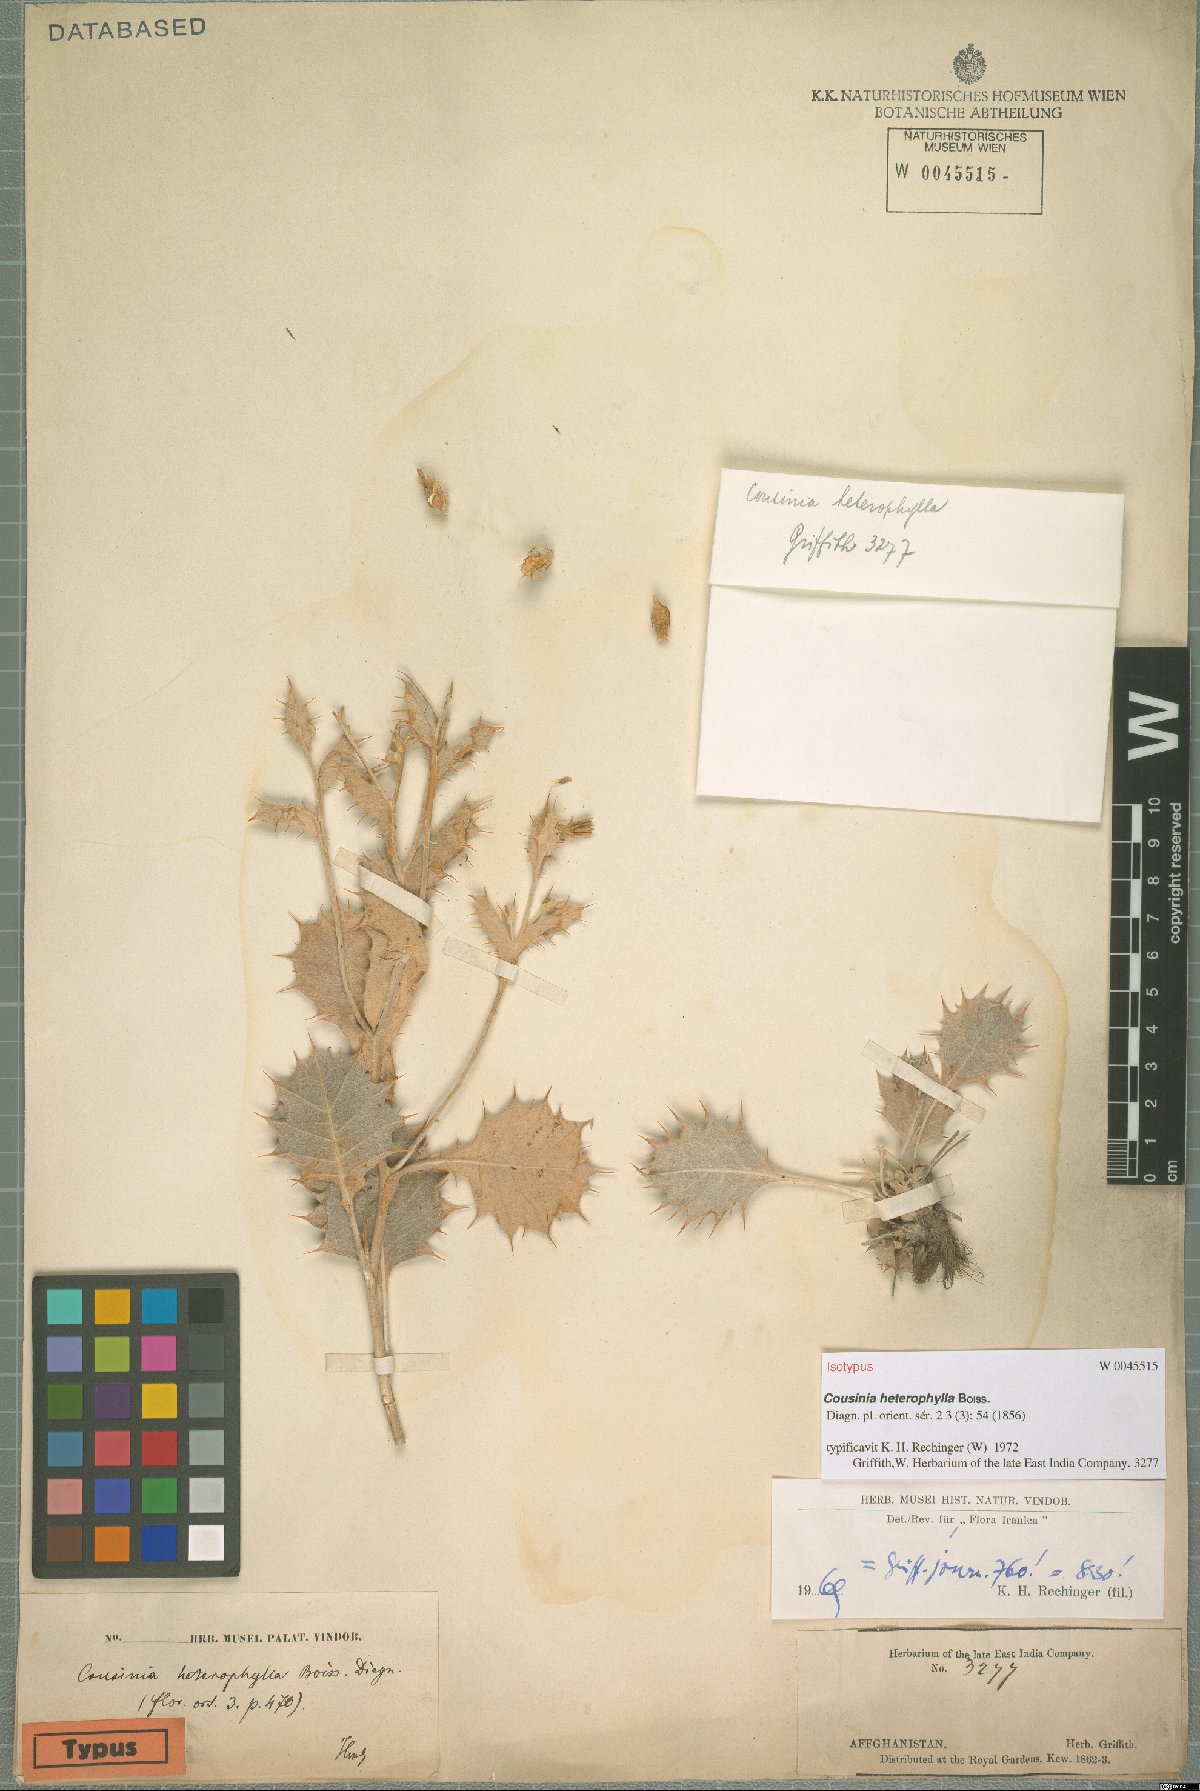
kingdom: Plantae
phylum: Tracheophyta
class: Magnoliopsida
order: Asterales
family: Asteraceae
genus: Cousinia
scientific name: Cousinia heterophylla
